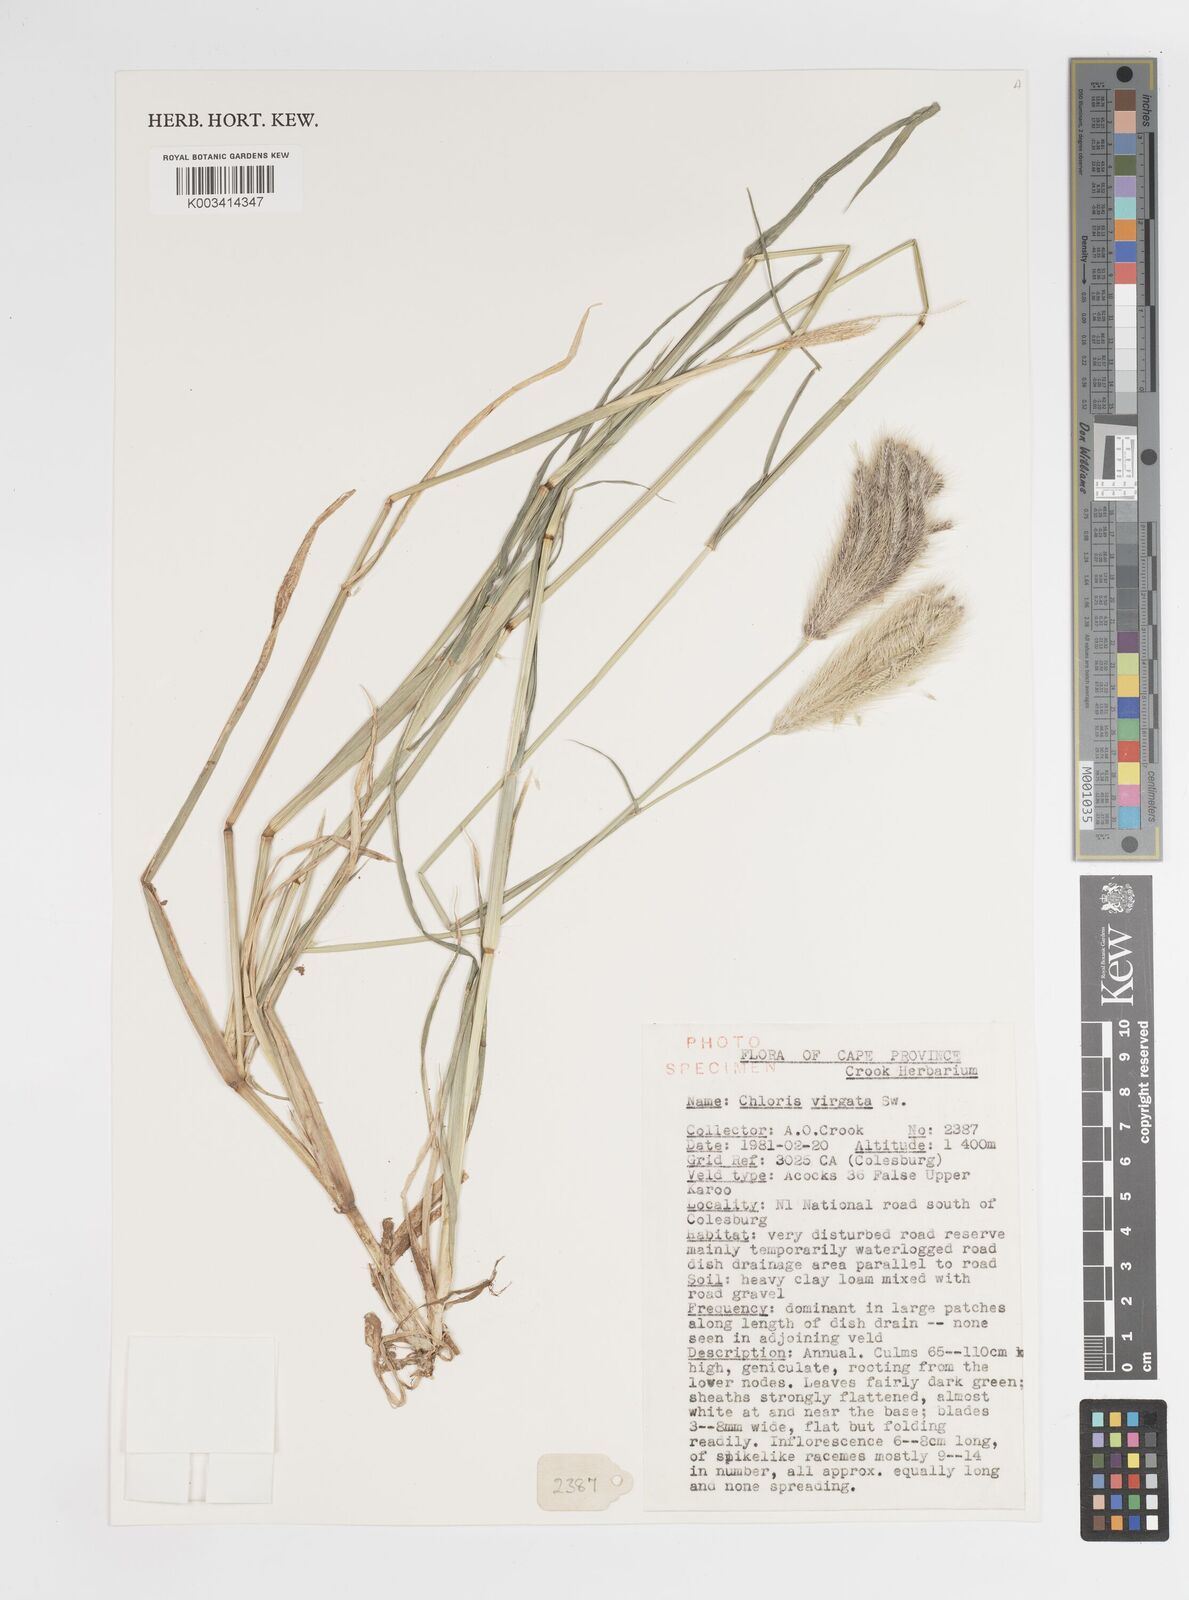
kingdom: Plantae
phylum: Tracheophyta
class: Liliopsida
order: Poales
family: Poaceae
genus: Chloris
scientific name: Chloris virgata
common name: Feathery rhodes-grass
